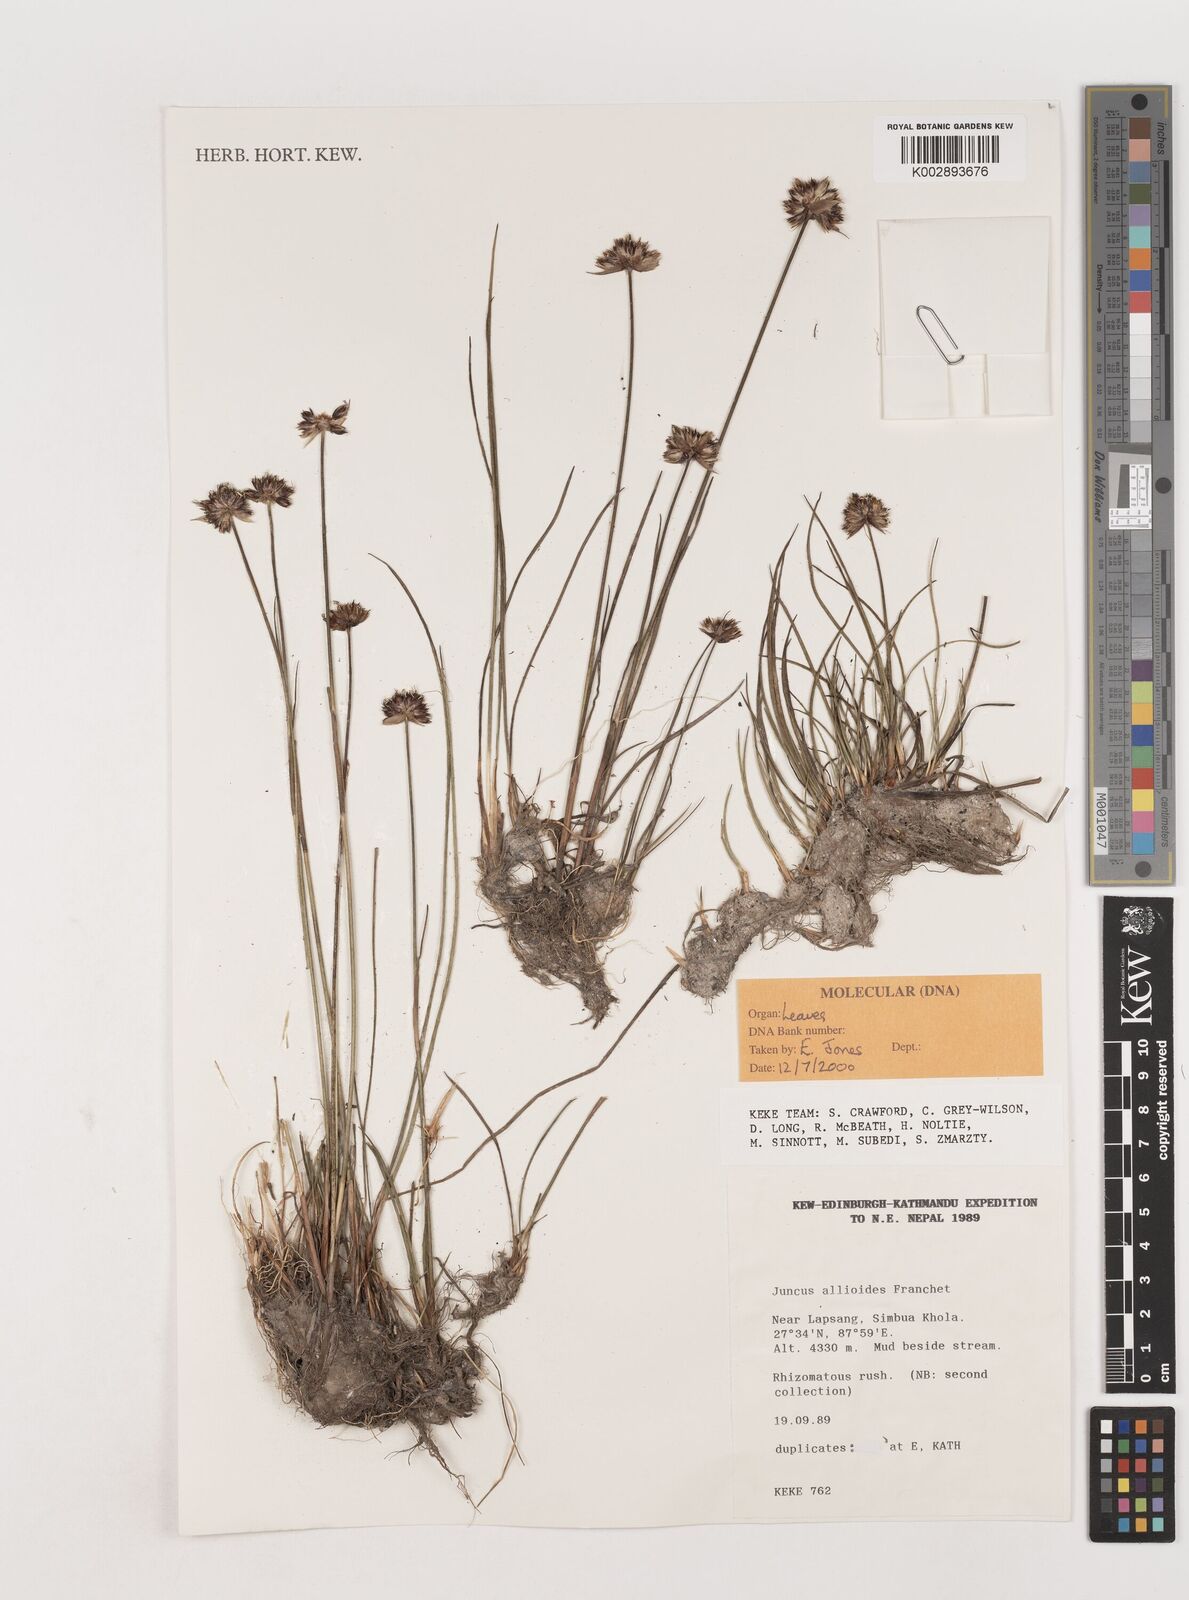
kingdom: Plantae
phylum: Tracheophyta
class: Liliopsida
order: Poales
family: Juncaceae
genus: Juncus
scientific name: Juncus allioides
